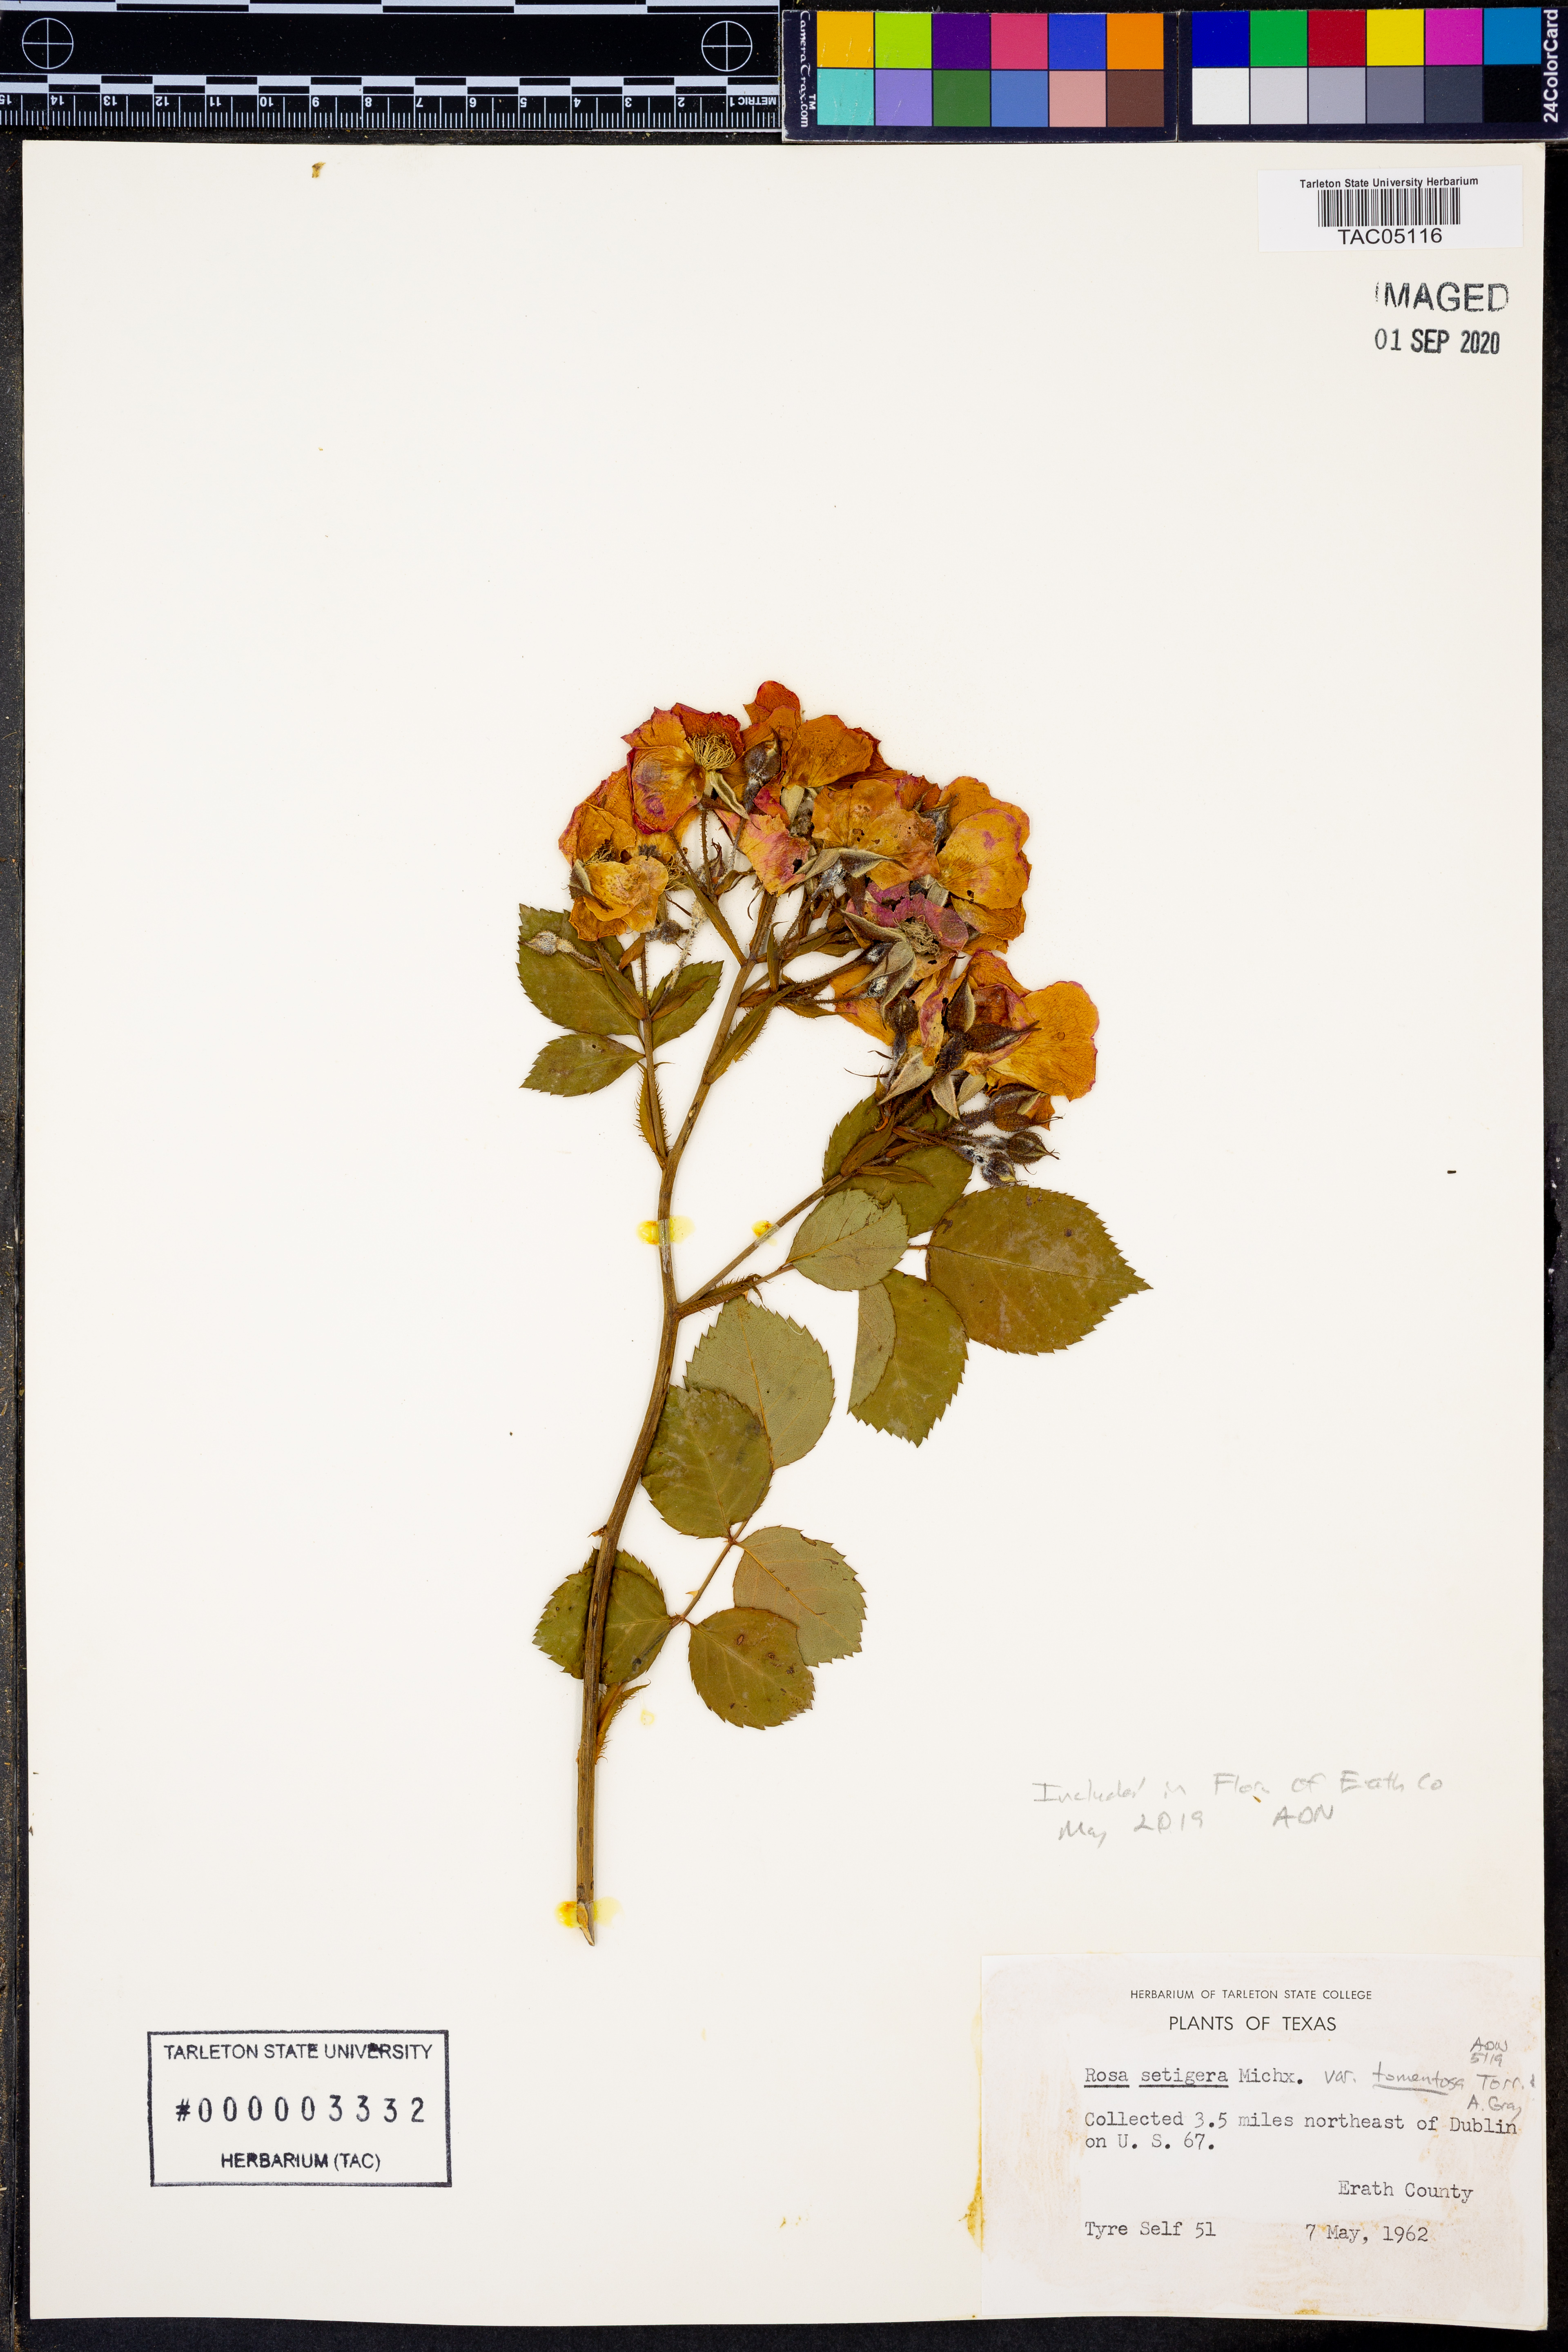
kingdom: Plantae
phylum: Tracheophyta
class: Magnoliopsida
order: Rosales
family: Rosaceae
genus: Rosa
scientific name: Rosa setigera
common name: Prairie rose
